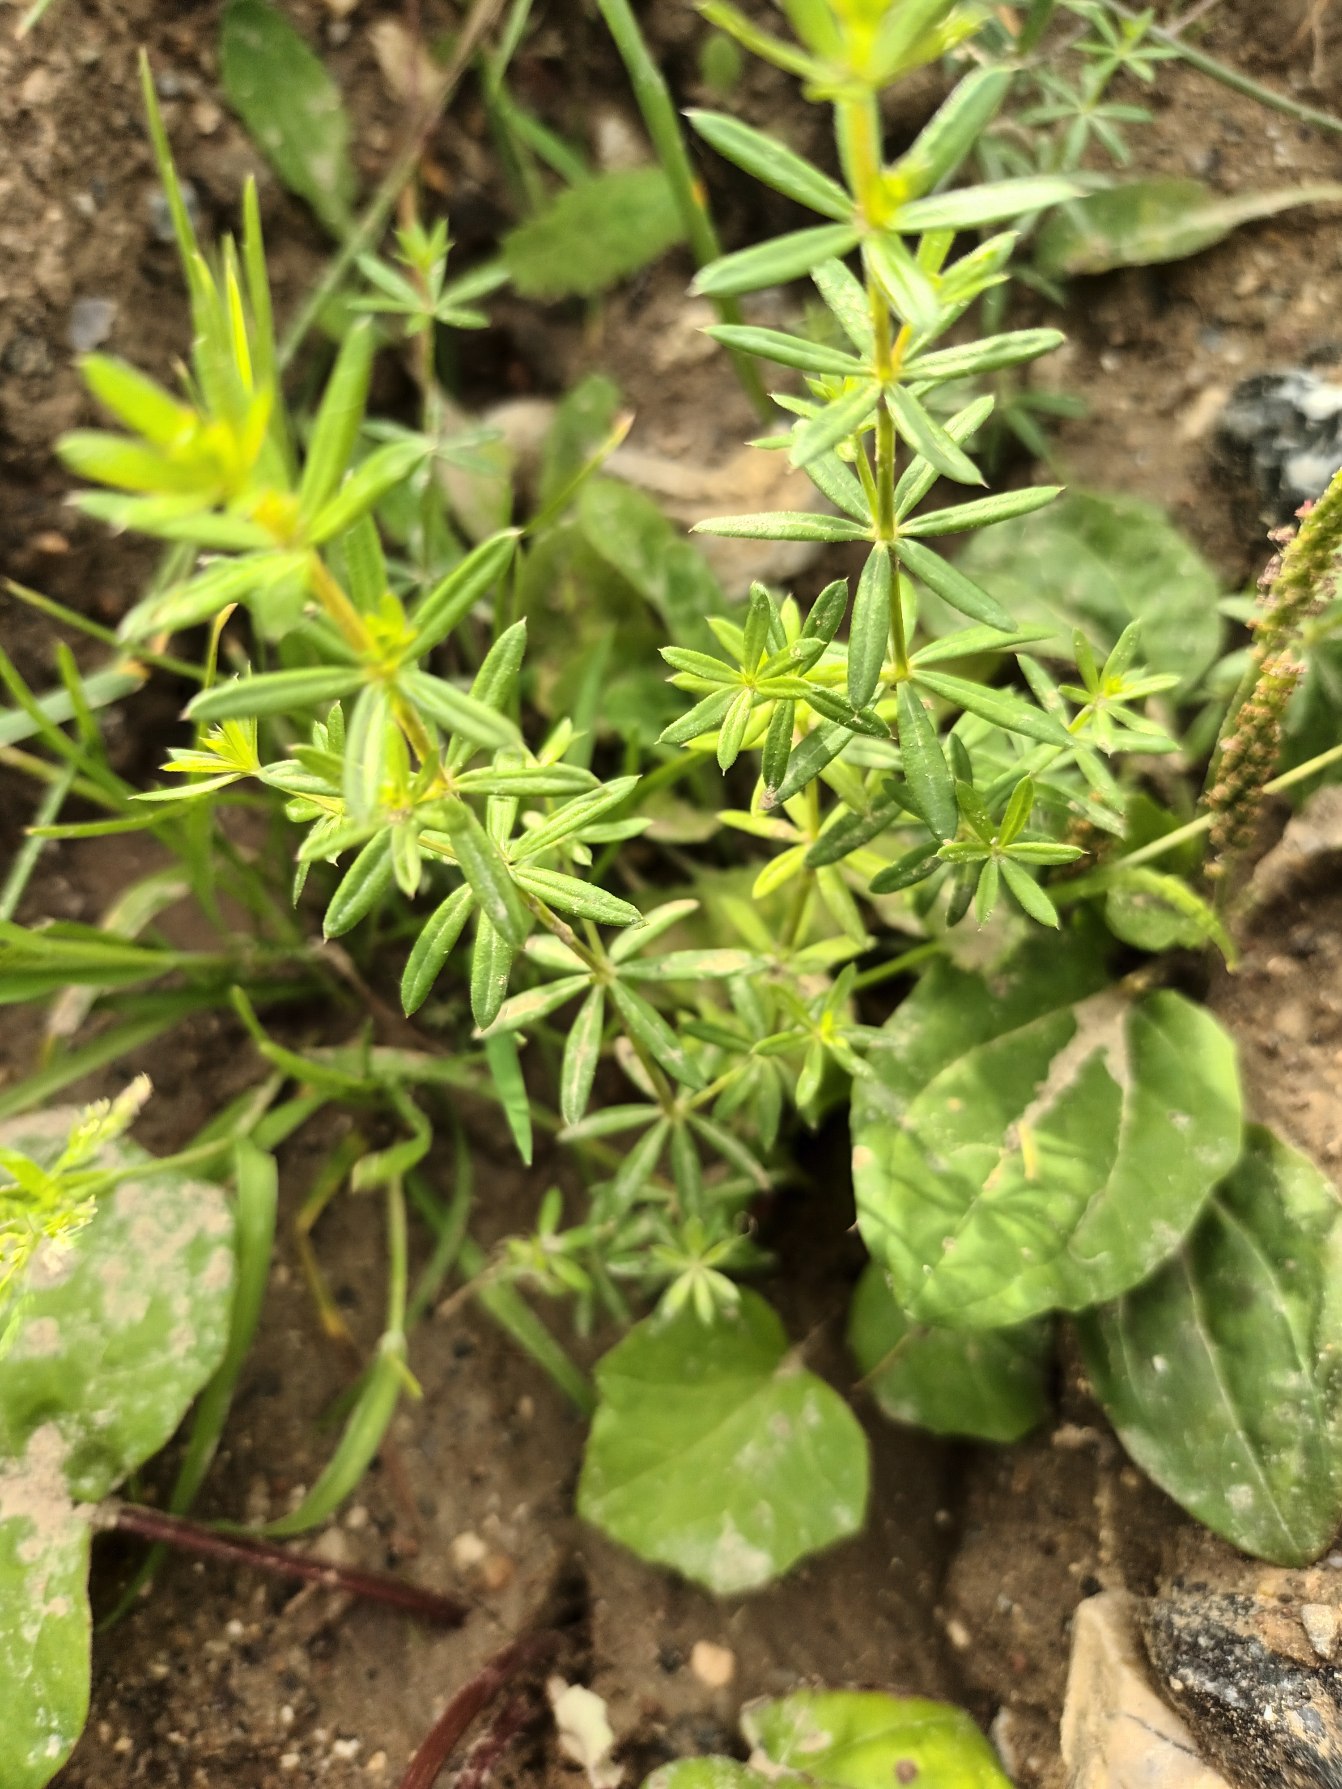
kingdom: Plantae
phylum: Tracheophyta
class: Magnoliopsida
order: Gentianales
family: Rubiaceae
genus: Galium
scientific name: Galium mollugo
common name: Hvid snerre
